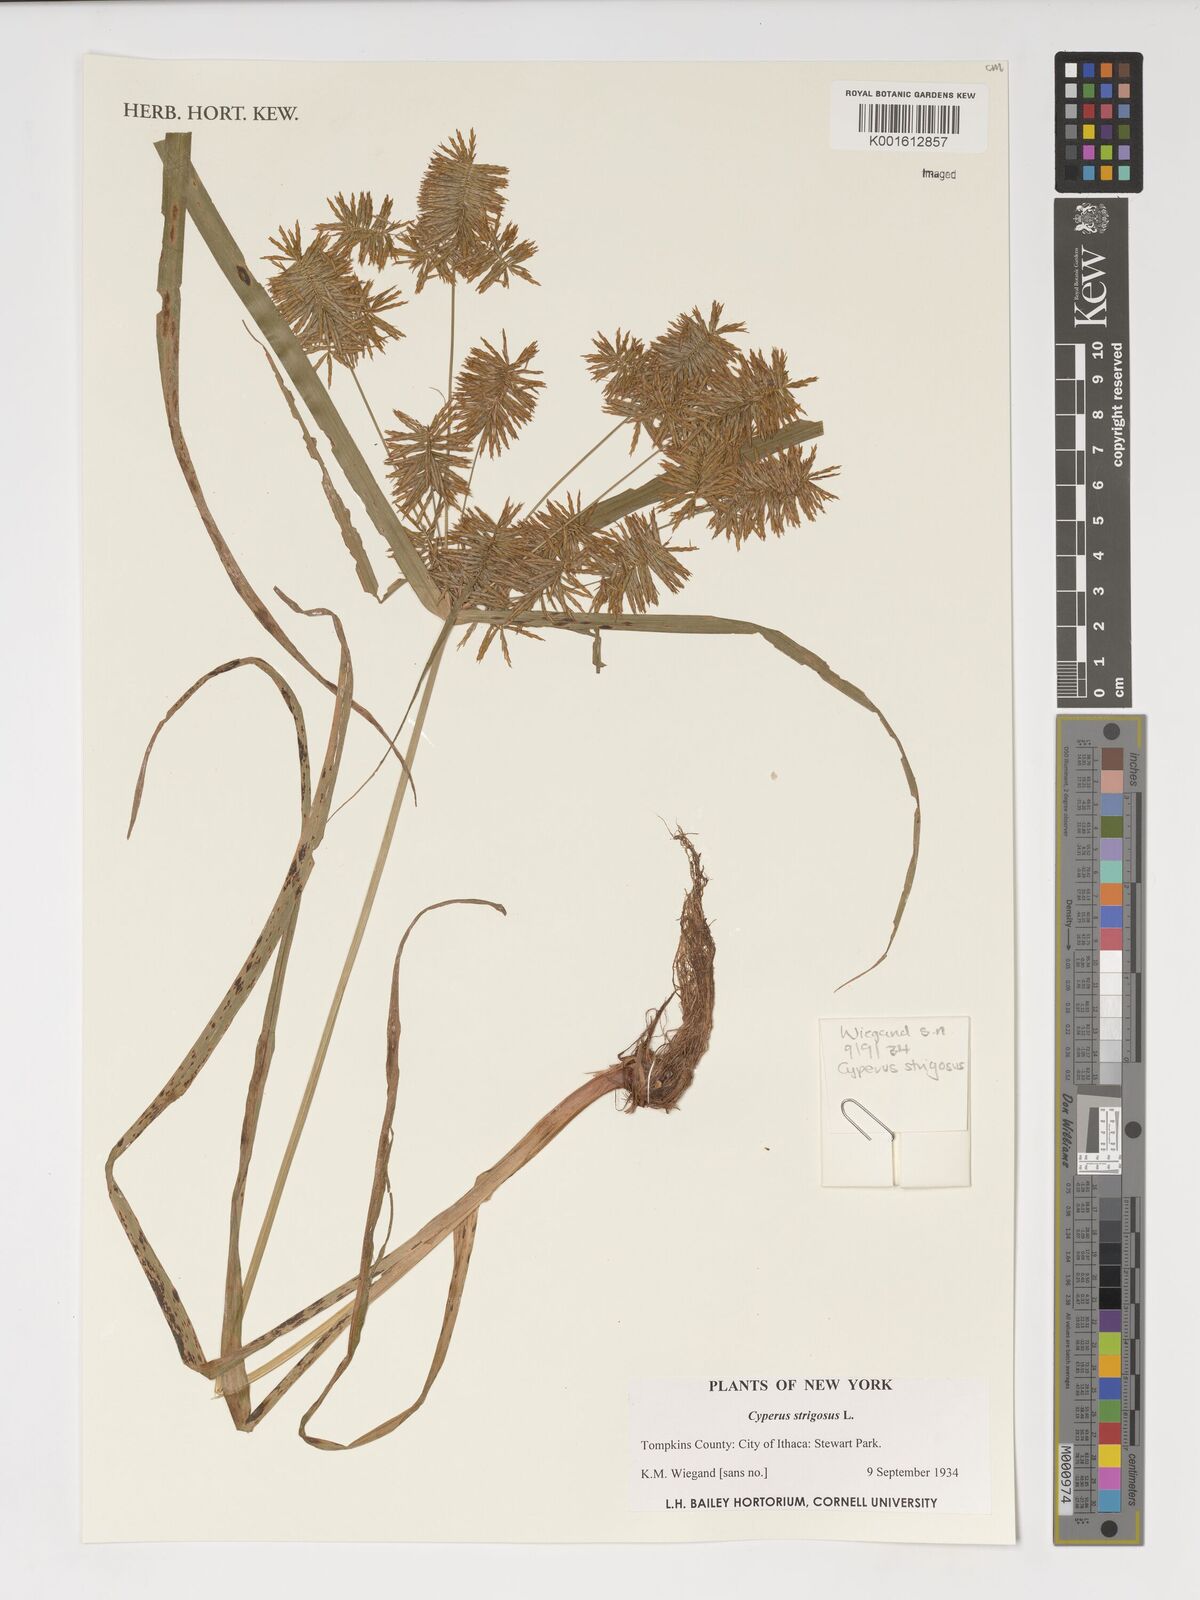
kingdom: Plantae
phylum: Tracheophyta
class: Liliopsida
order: Poales
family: Cyperaceae
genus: Cyperus
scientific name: Cyperus strigosus
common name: False nutsedge
